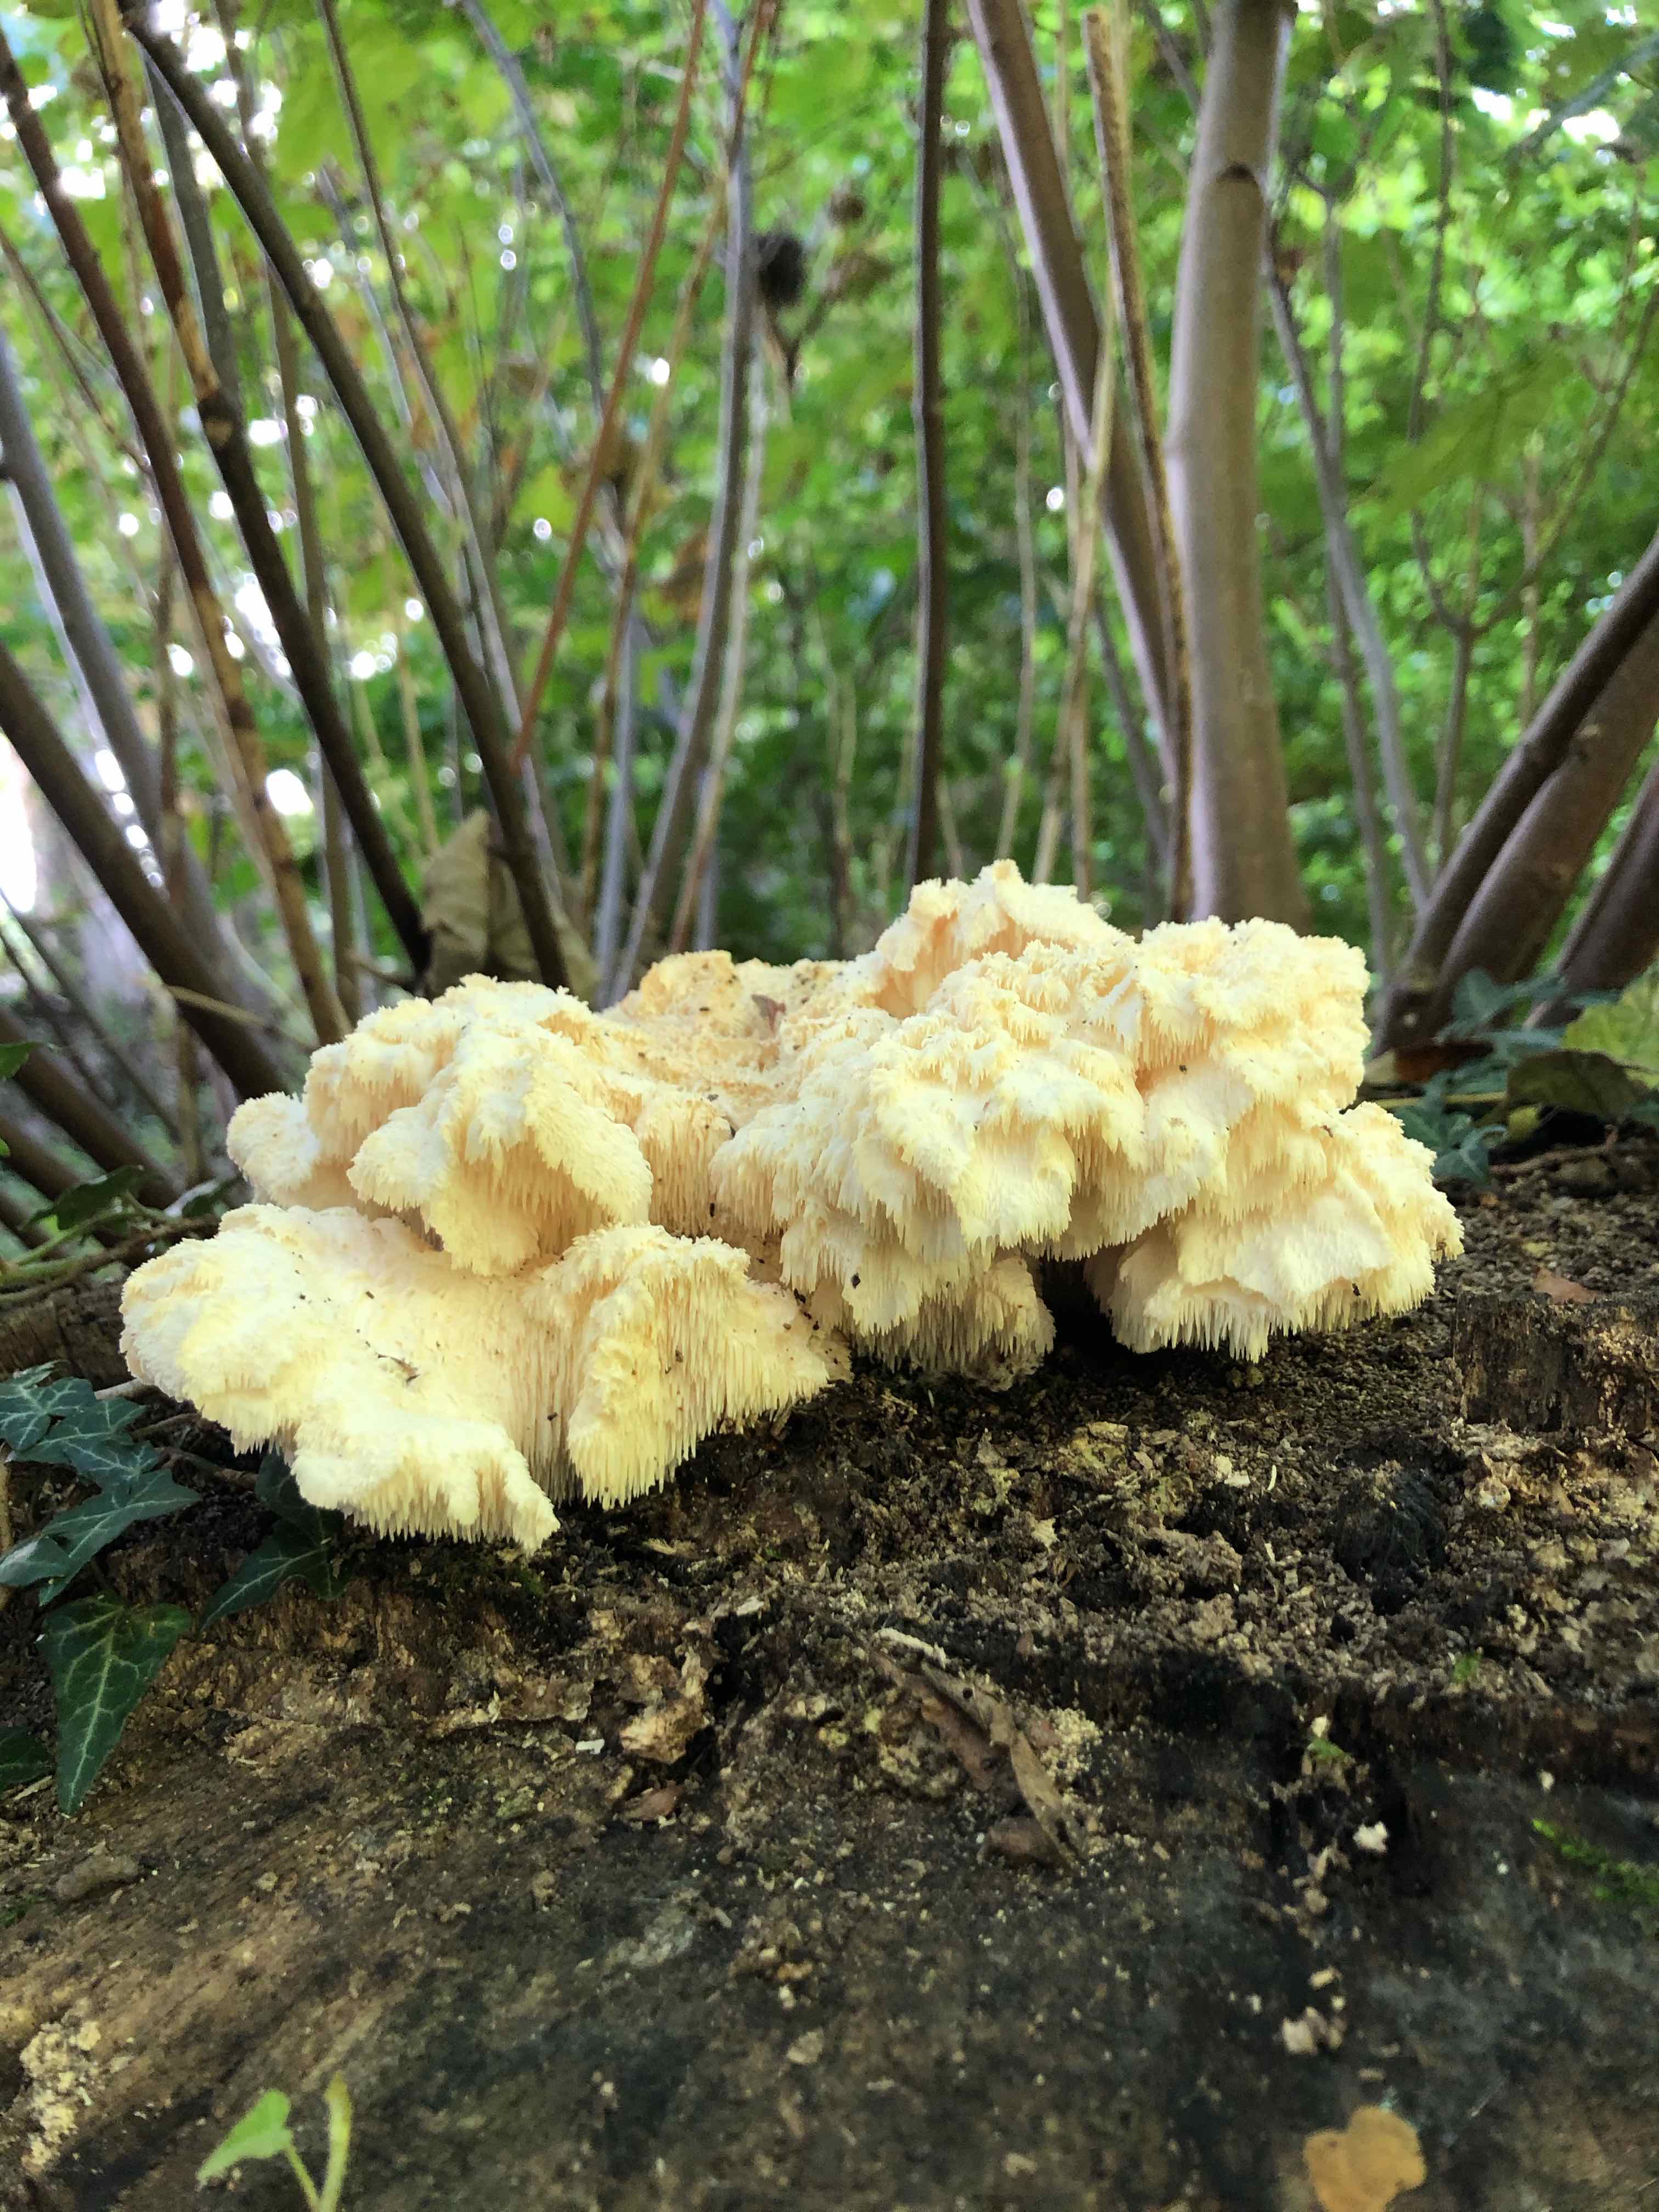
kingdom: Fungi
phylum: Basidiomycota
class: Agaricomycetes
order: Russulales
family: Hericiaceae
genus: Hericium
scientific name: Hericium cirrhatum
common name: børstepigsvamp
